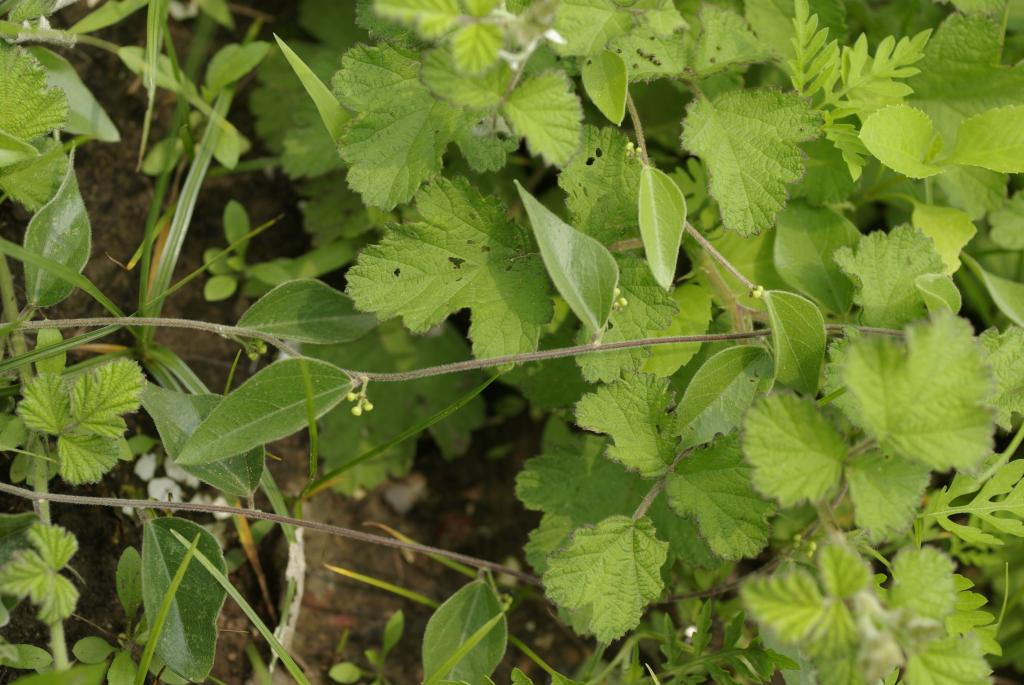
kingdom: Plantae
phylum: Tracheophyta
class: Magnoliopsida
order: Ranunculales
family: Menispermaceae
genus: Cocculus
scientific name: Cocculus orbiculatus
